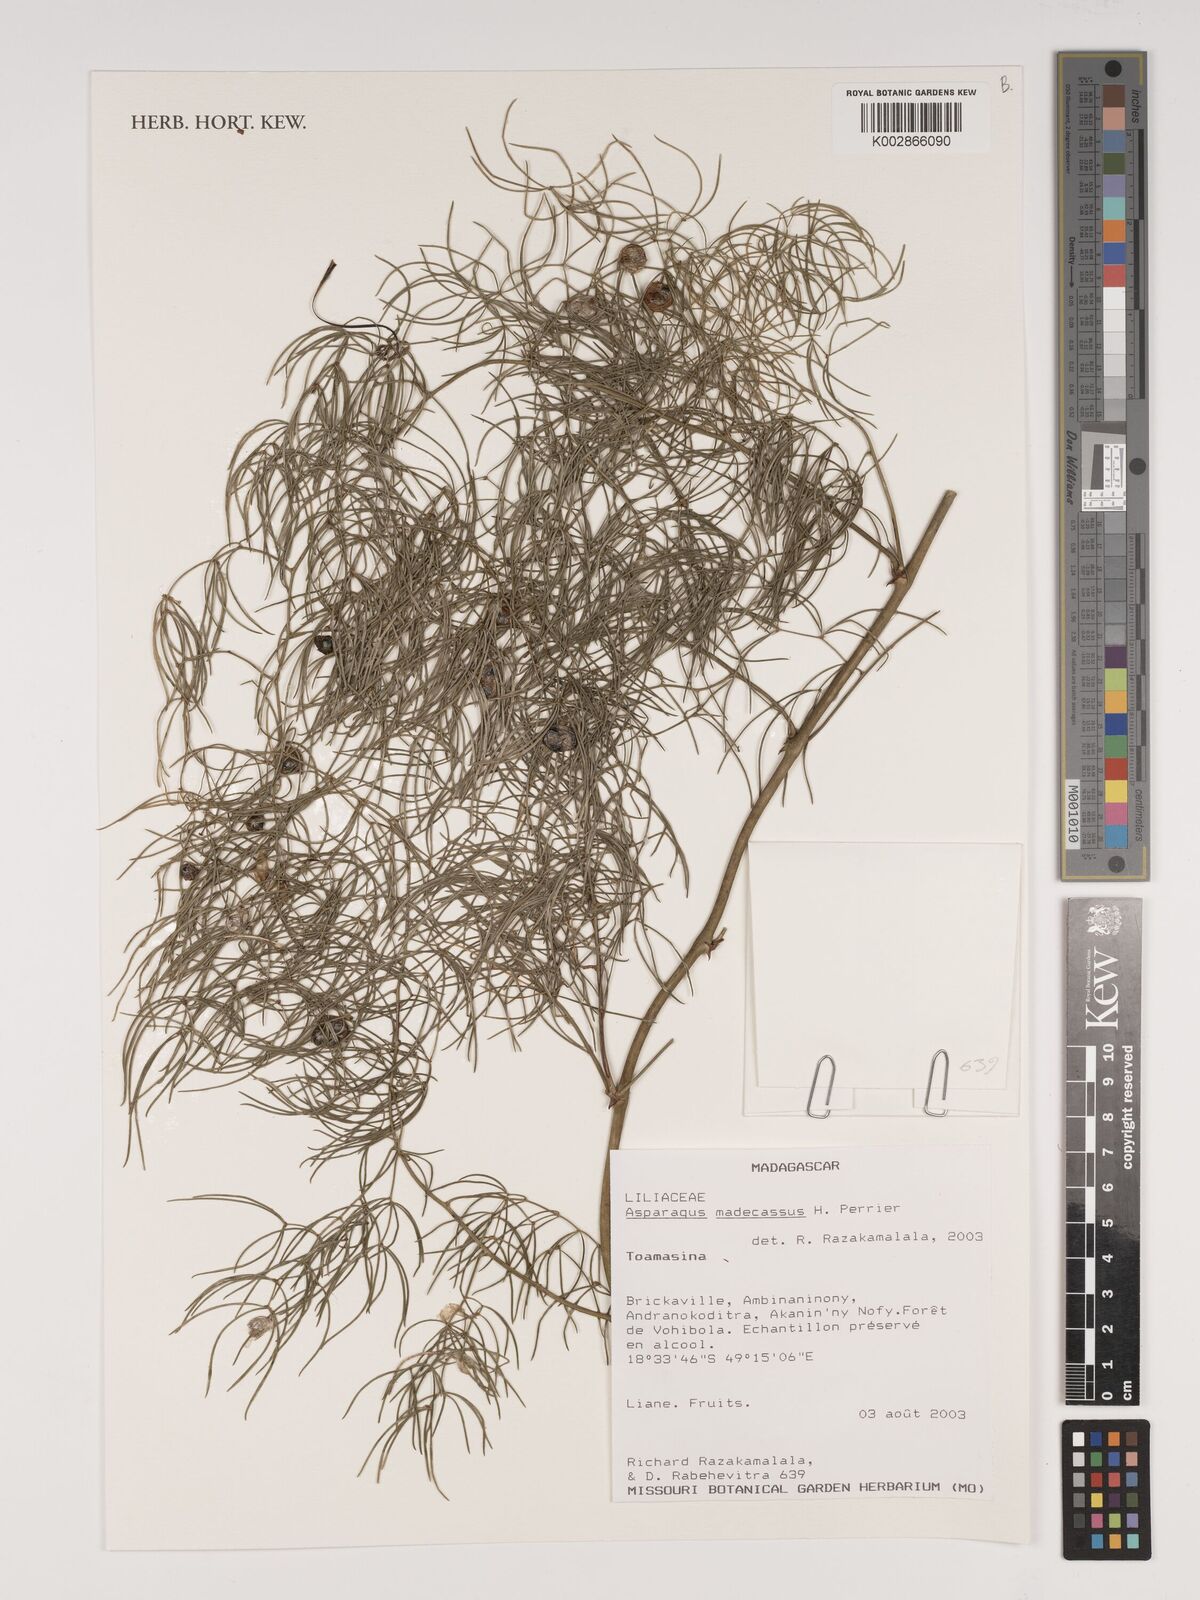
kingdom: Plantae
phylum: Tracheophyta
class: Liliopsida
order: Asparagales
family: Asparagaceae
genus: Asparagus
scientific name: Asparagus madecassus
